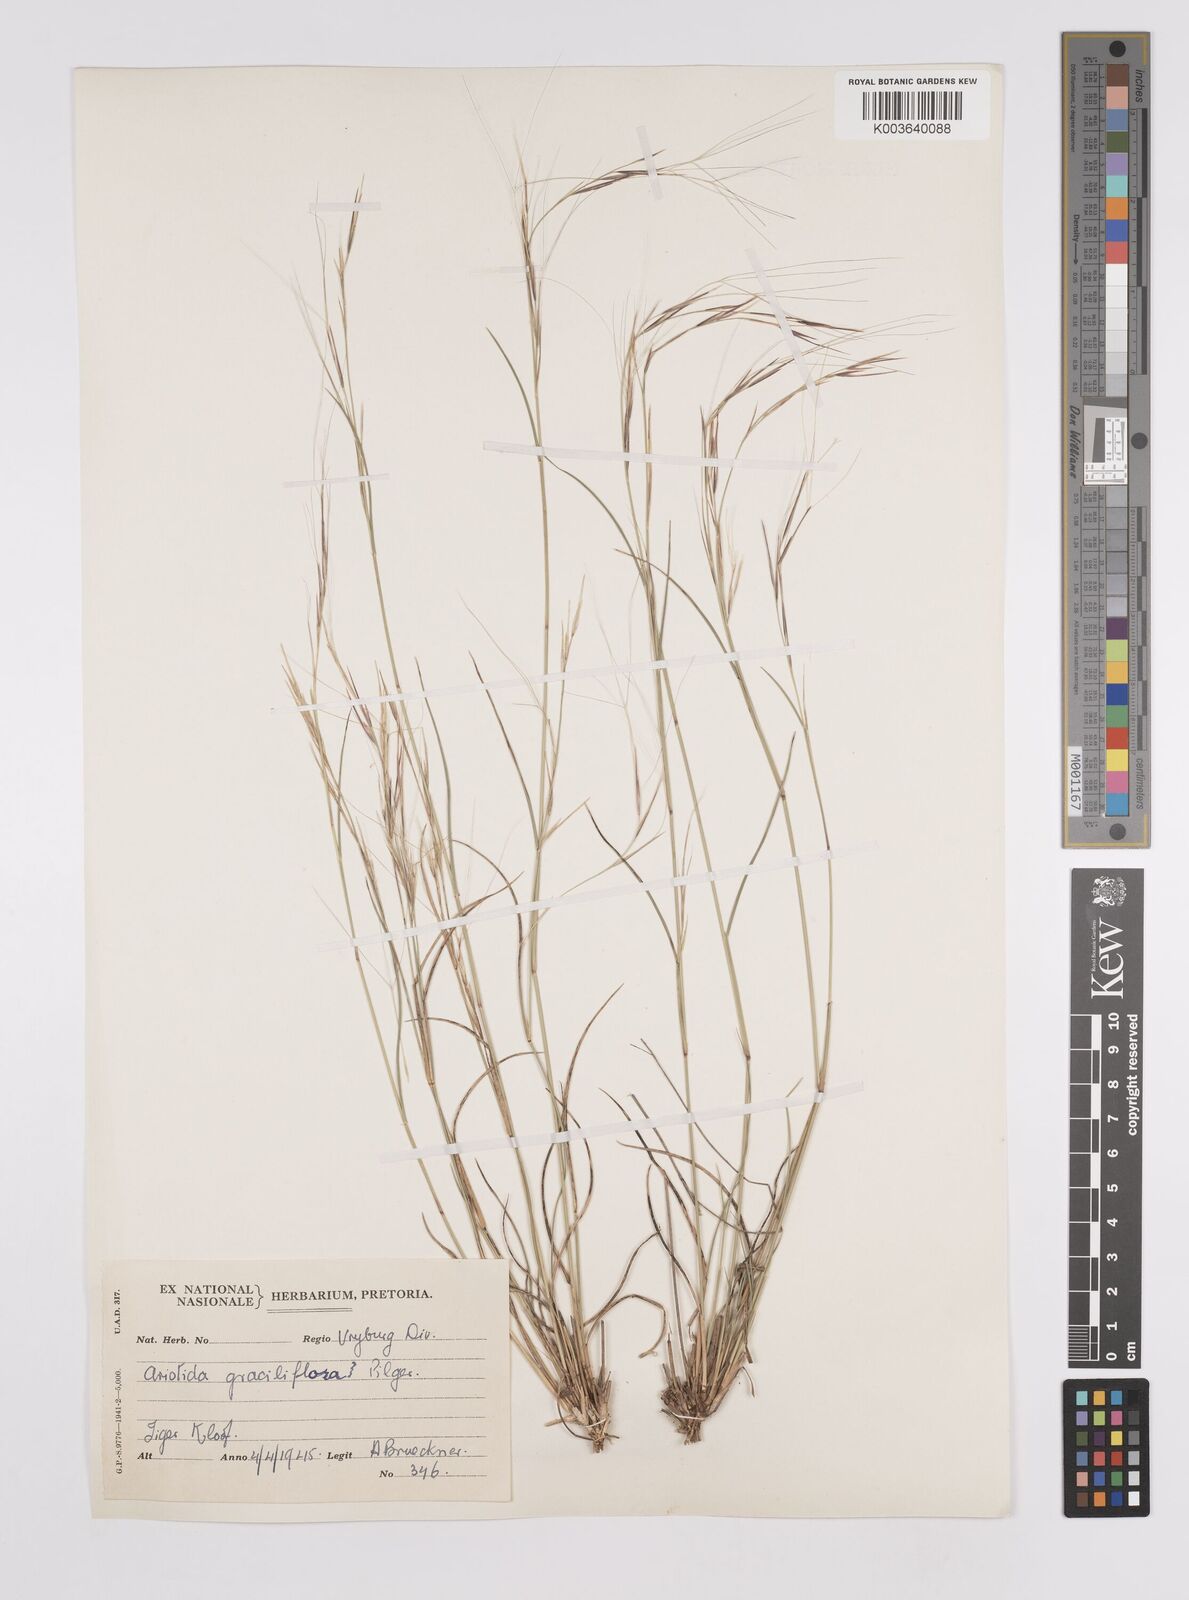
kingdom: Plantae
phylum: Tracheophyta
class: Liliopsida
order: Poales
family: Poaceae
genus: Aristida
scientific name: Aristida stipitata
